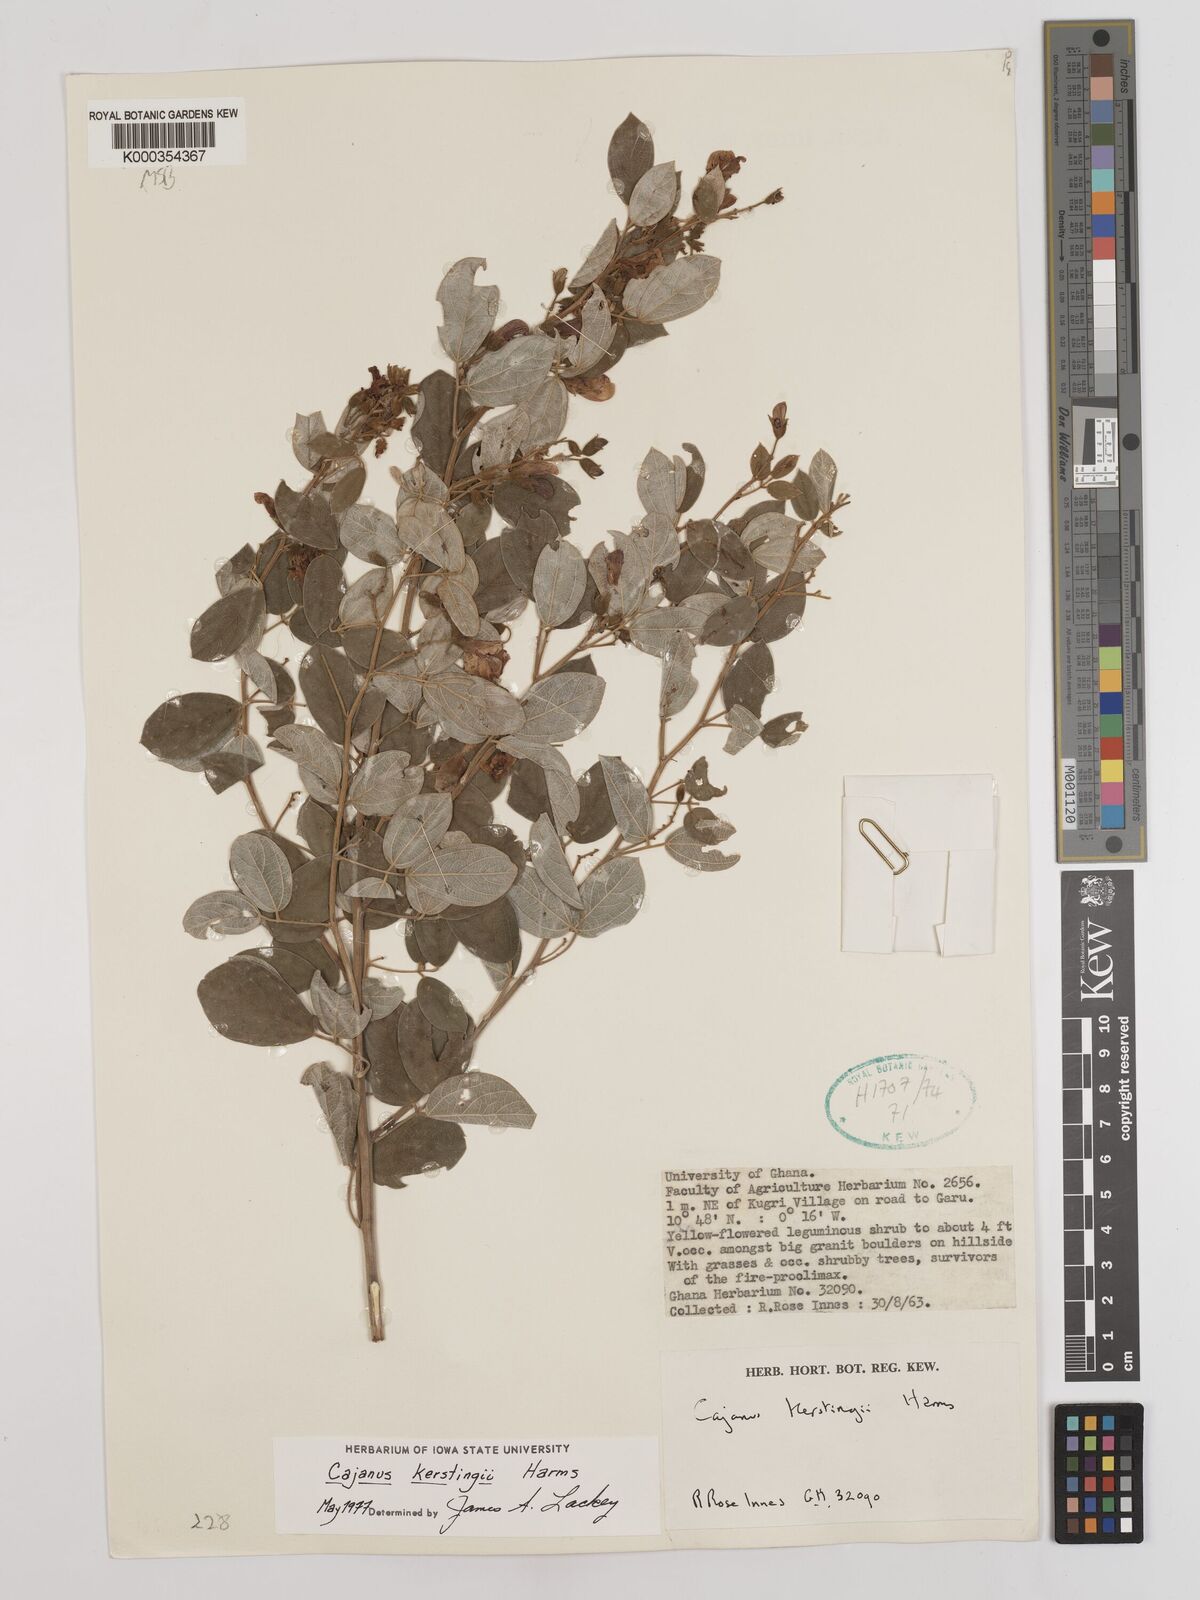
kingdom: Plantae
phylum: Tracheophyta
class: Magnoliopsida
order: Fabales
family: Fabaceae
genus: Cajanus
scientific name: Cajanus kerstingii
